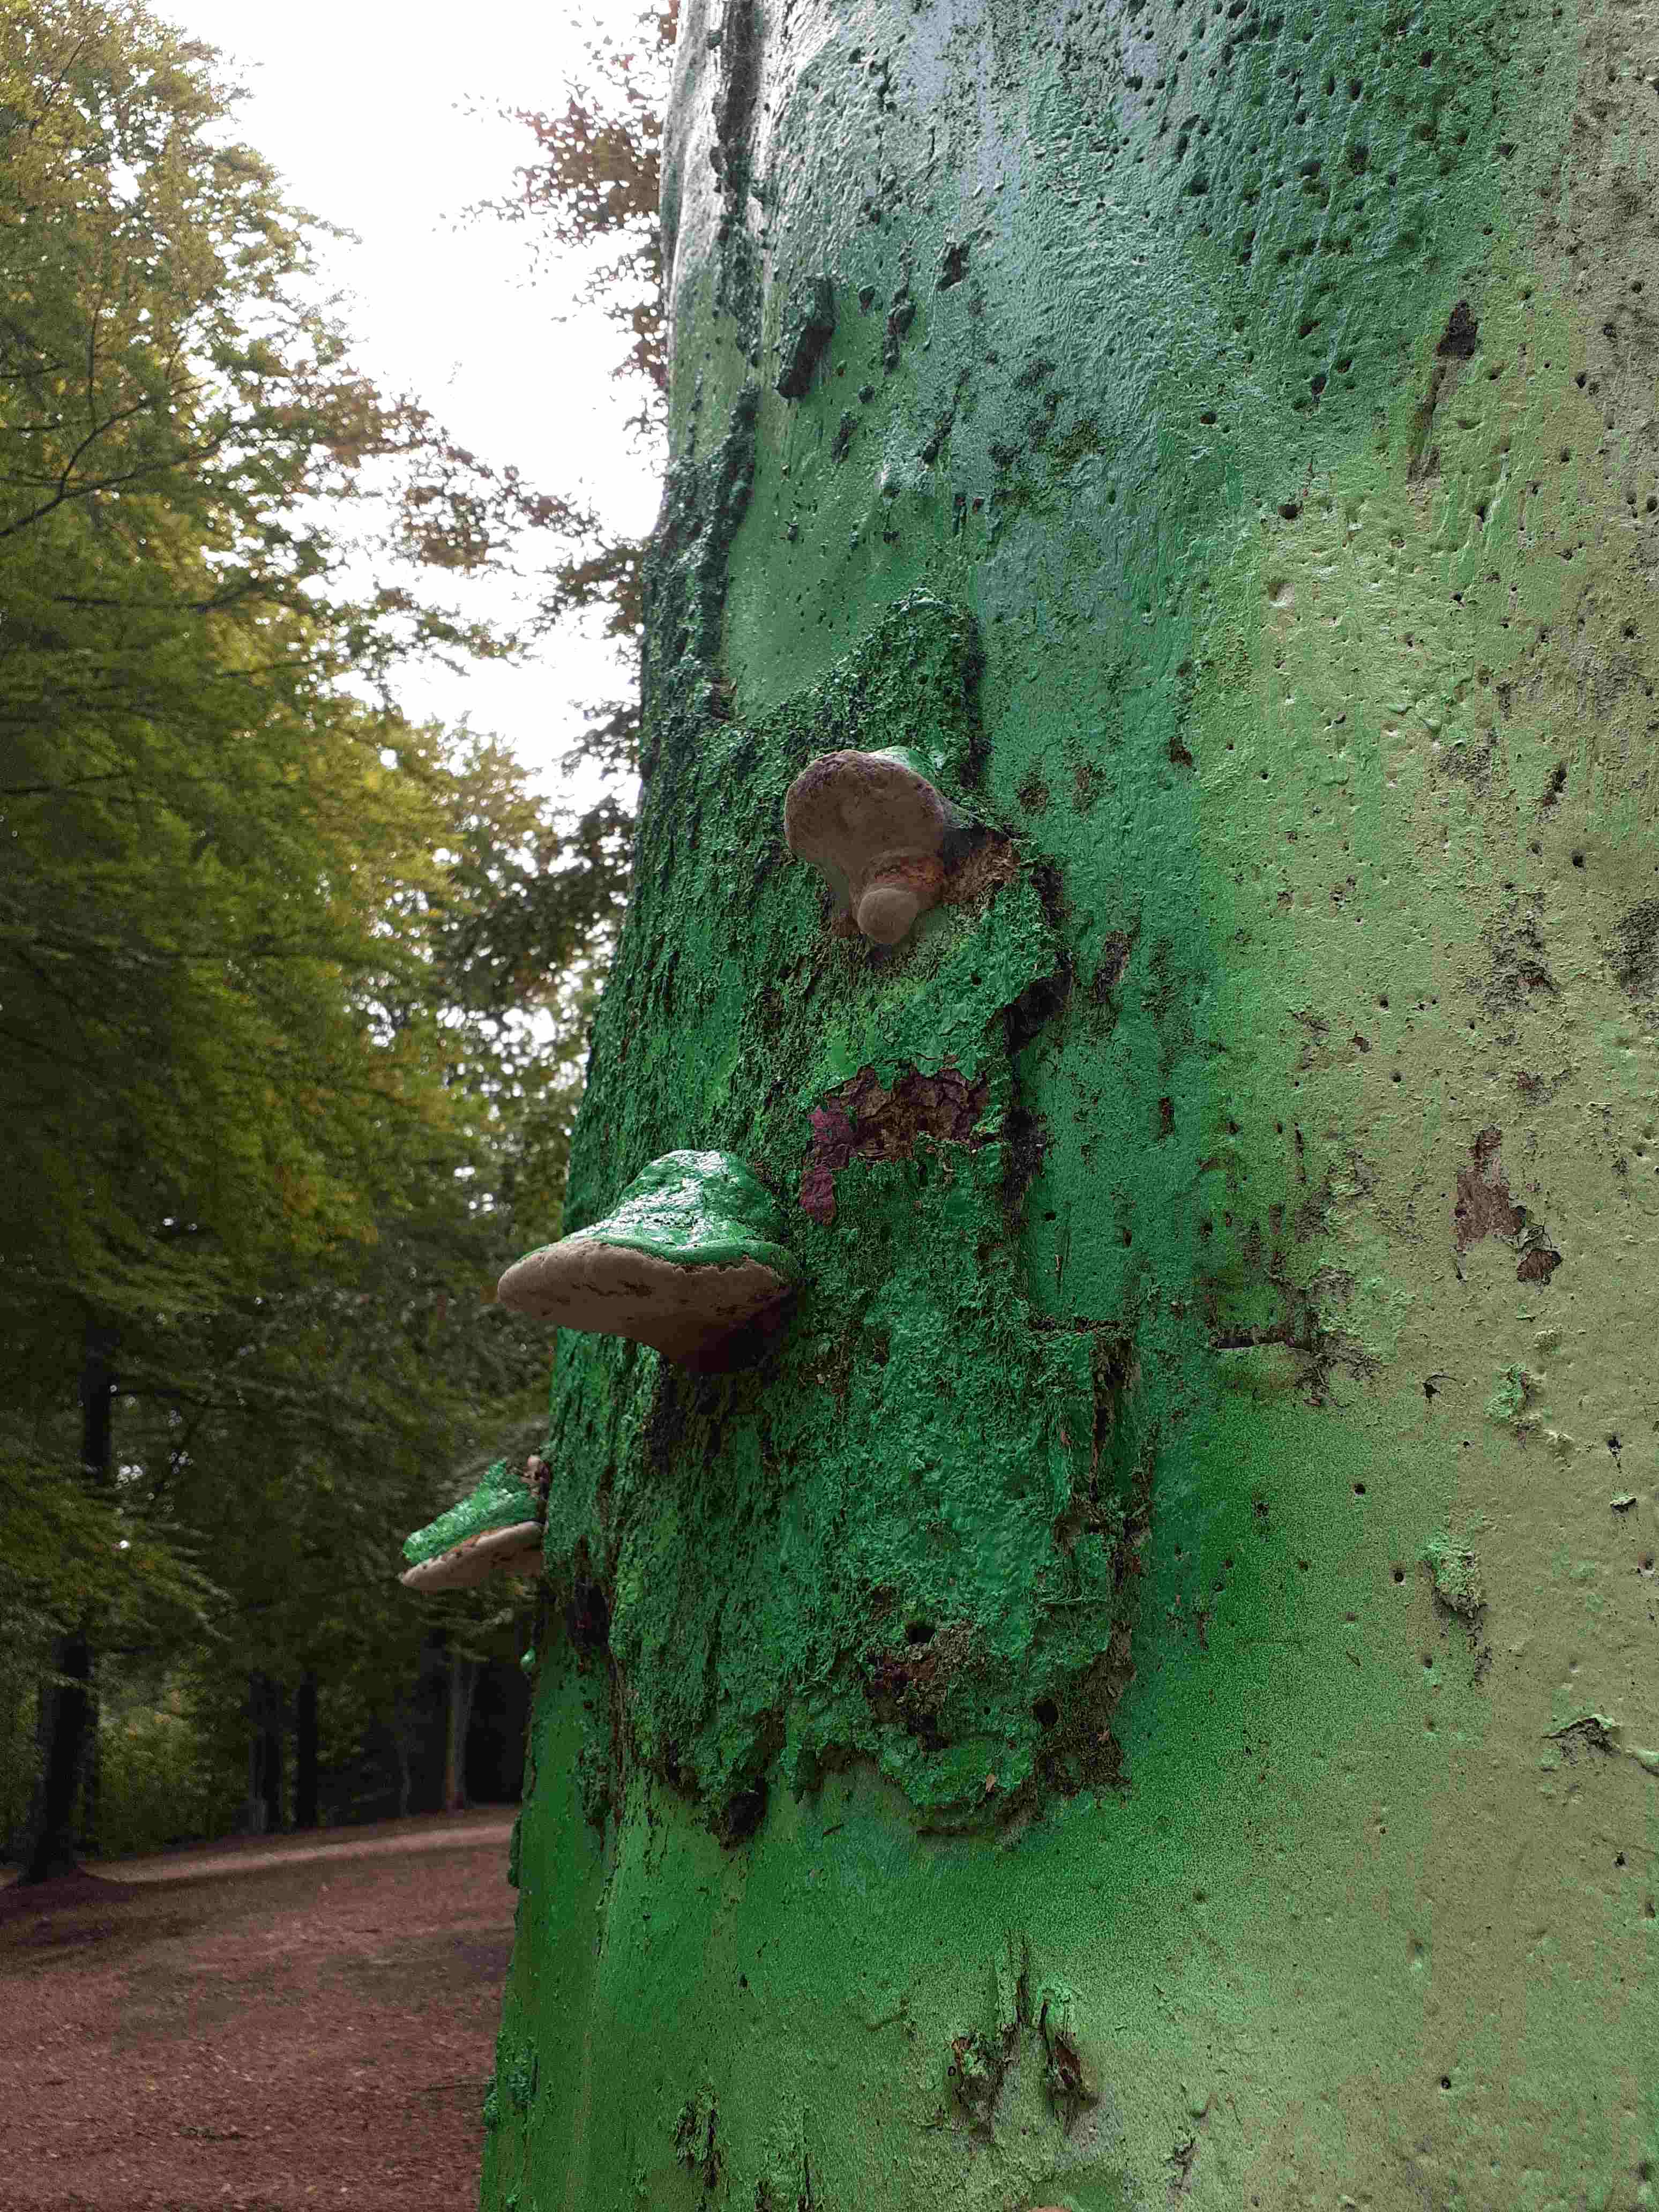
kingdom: Fungi
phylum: Basidiomycota
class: Agaricomycetes
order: Polyporales
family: Polyporaceae
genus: Fomes
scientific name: Fomes fomentarius
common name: tøndersvamp
